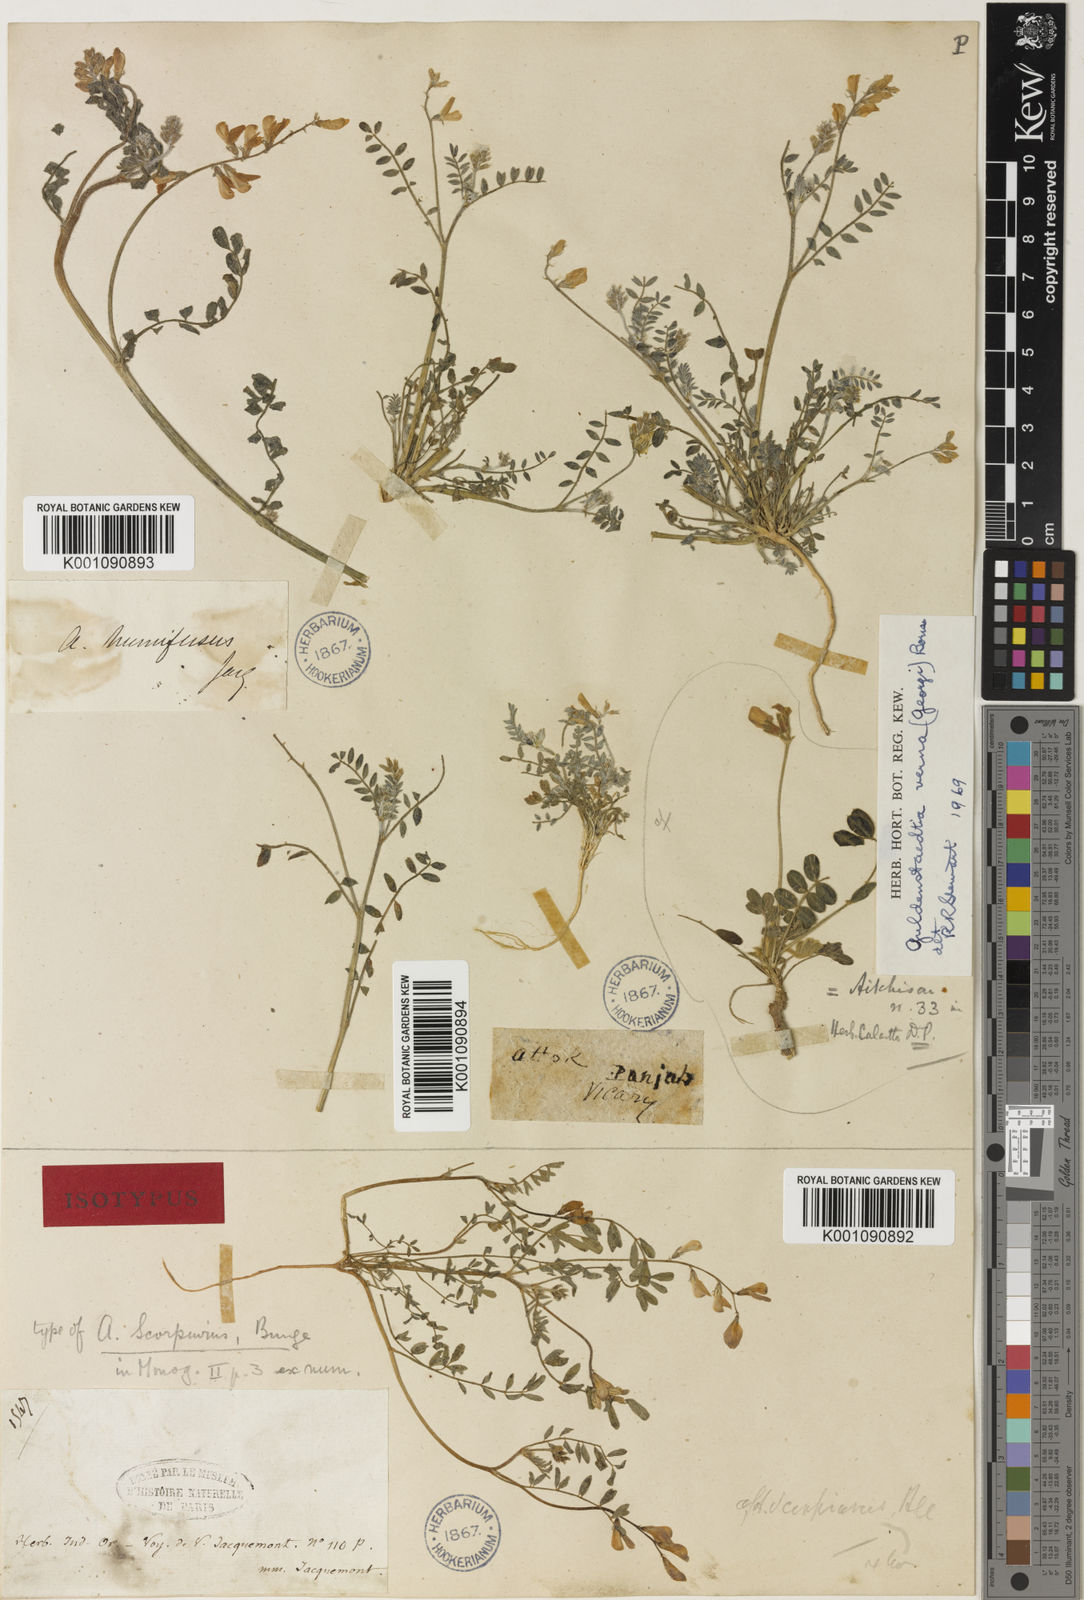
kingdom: Plantae
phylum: Tracheophyta
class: Magnoliopsida
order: Fabales
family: Fabaceae
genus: Astragalus
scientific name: Astragalus
